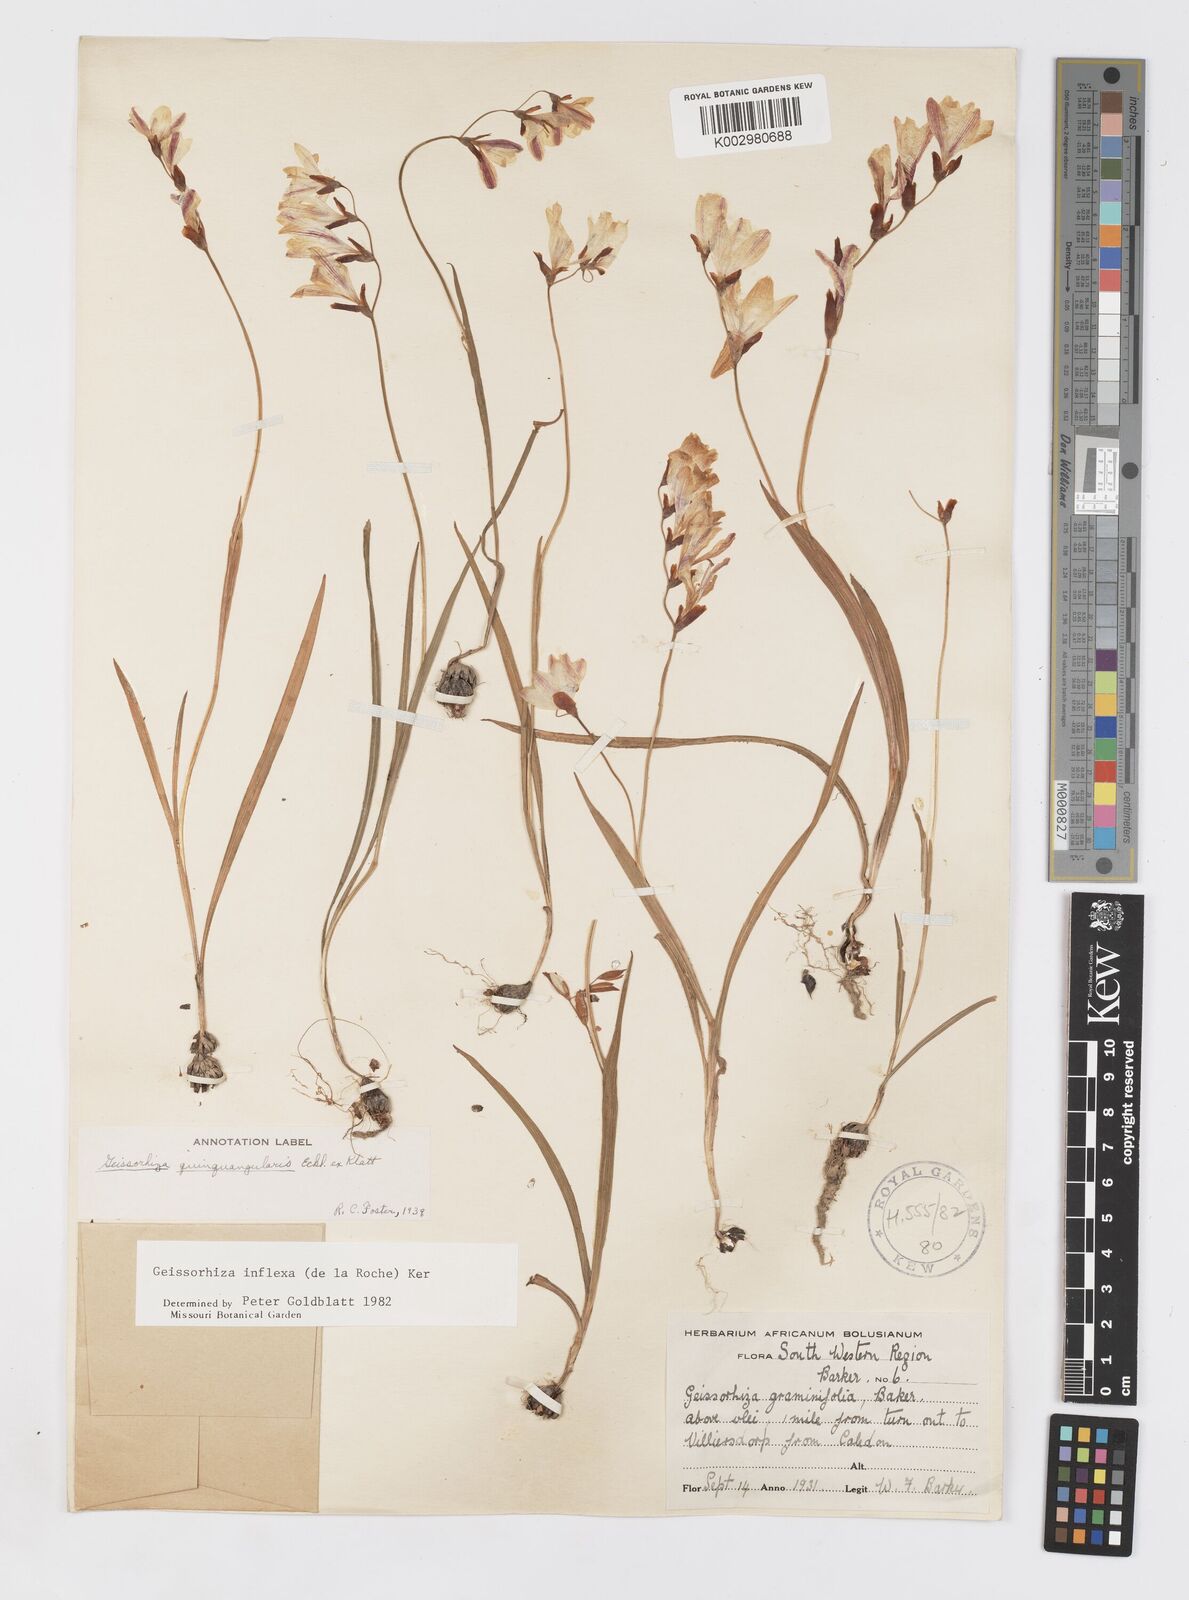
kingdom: Plantae
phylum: Tracheophyta
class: Liliopsida
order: Asparagales
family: Iridaceae
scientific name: Iridaceae
